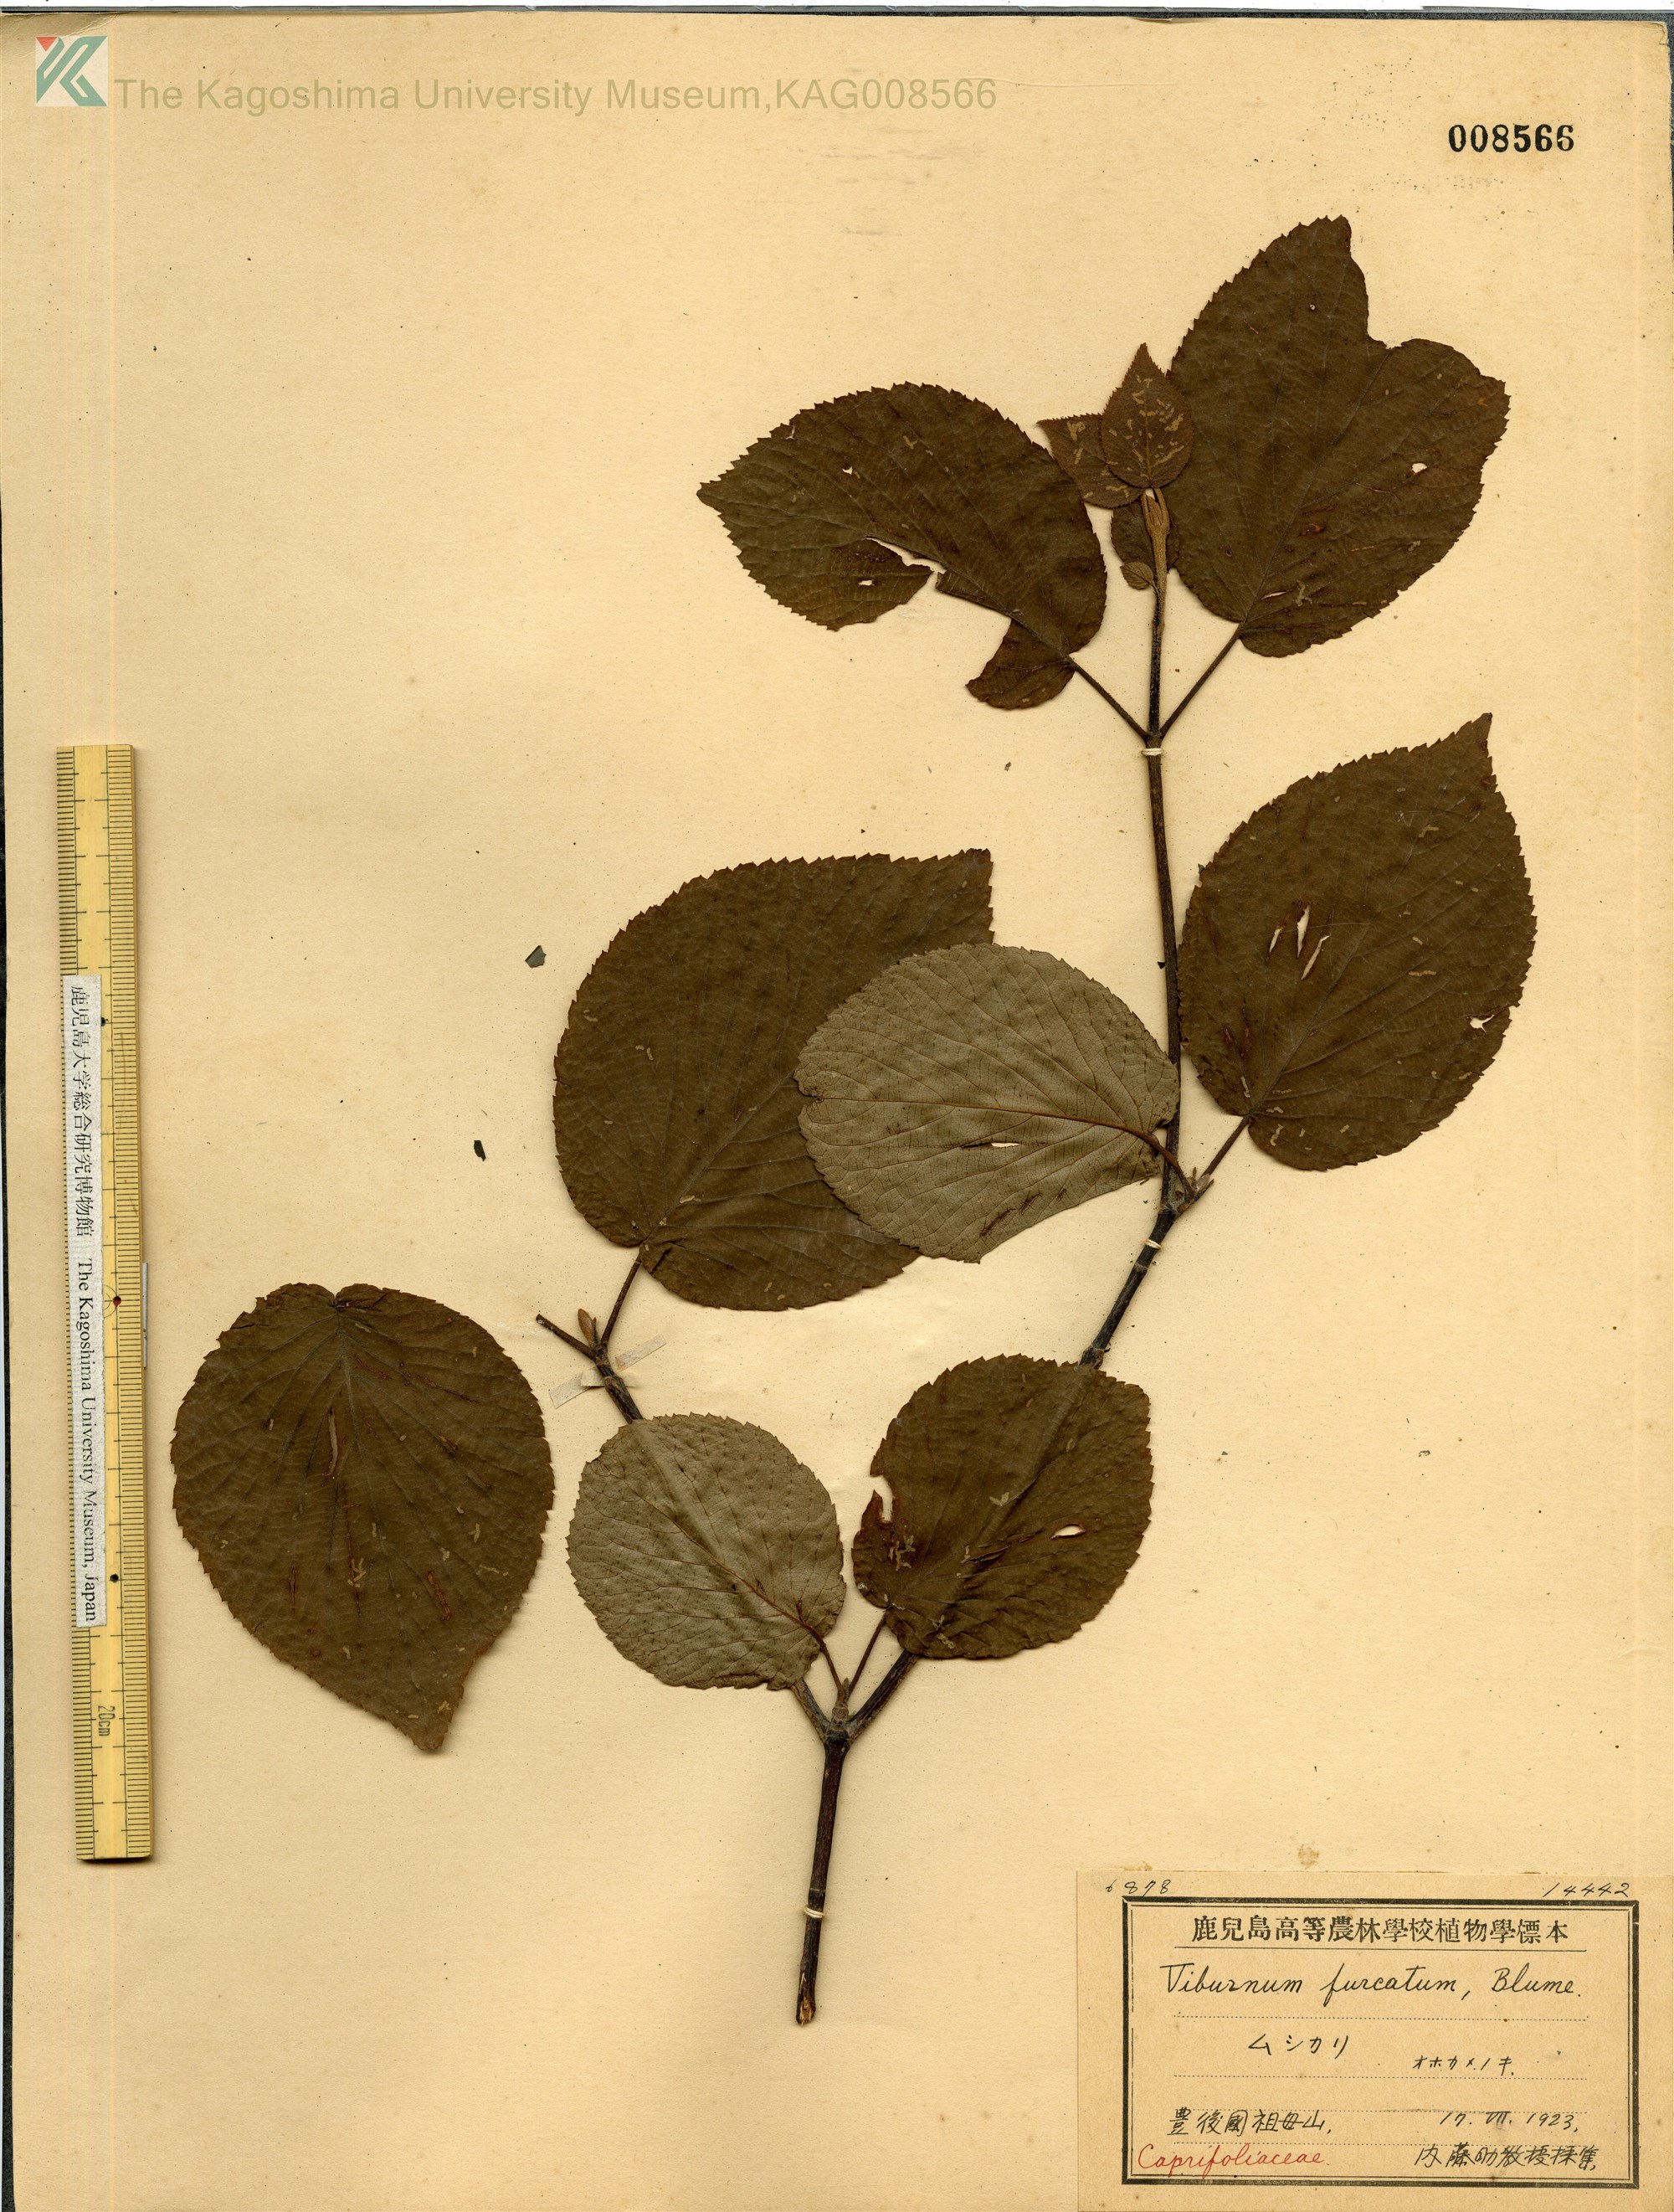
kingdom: Plantae
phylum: Tracheophyta
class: Magnoliopsida
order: Dipsacales
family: Viburnaceae
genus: Viburnum
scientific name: Viburnum furcatum
